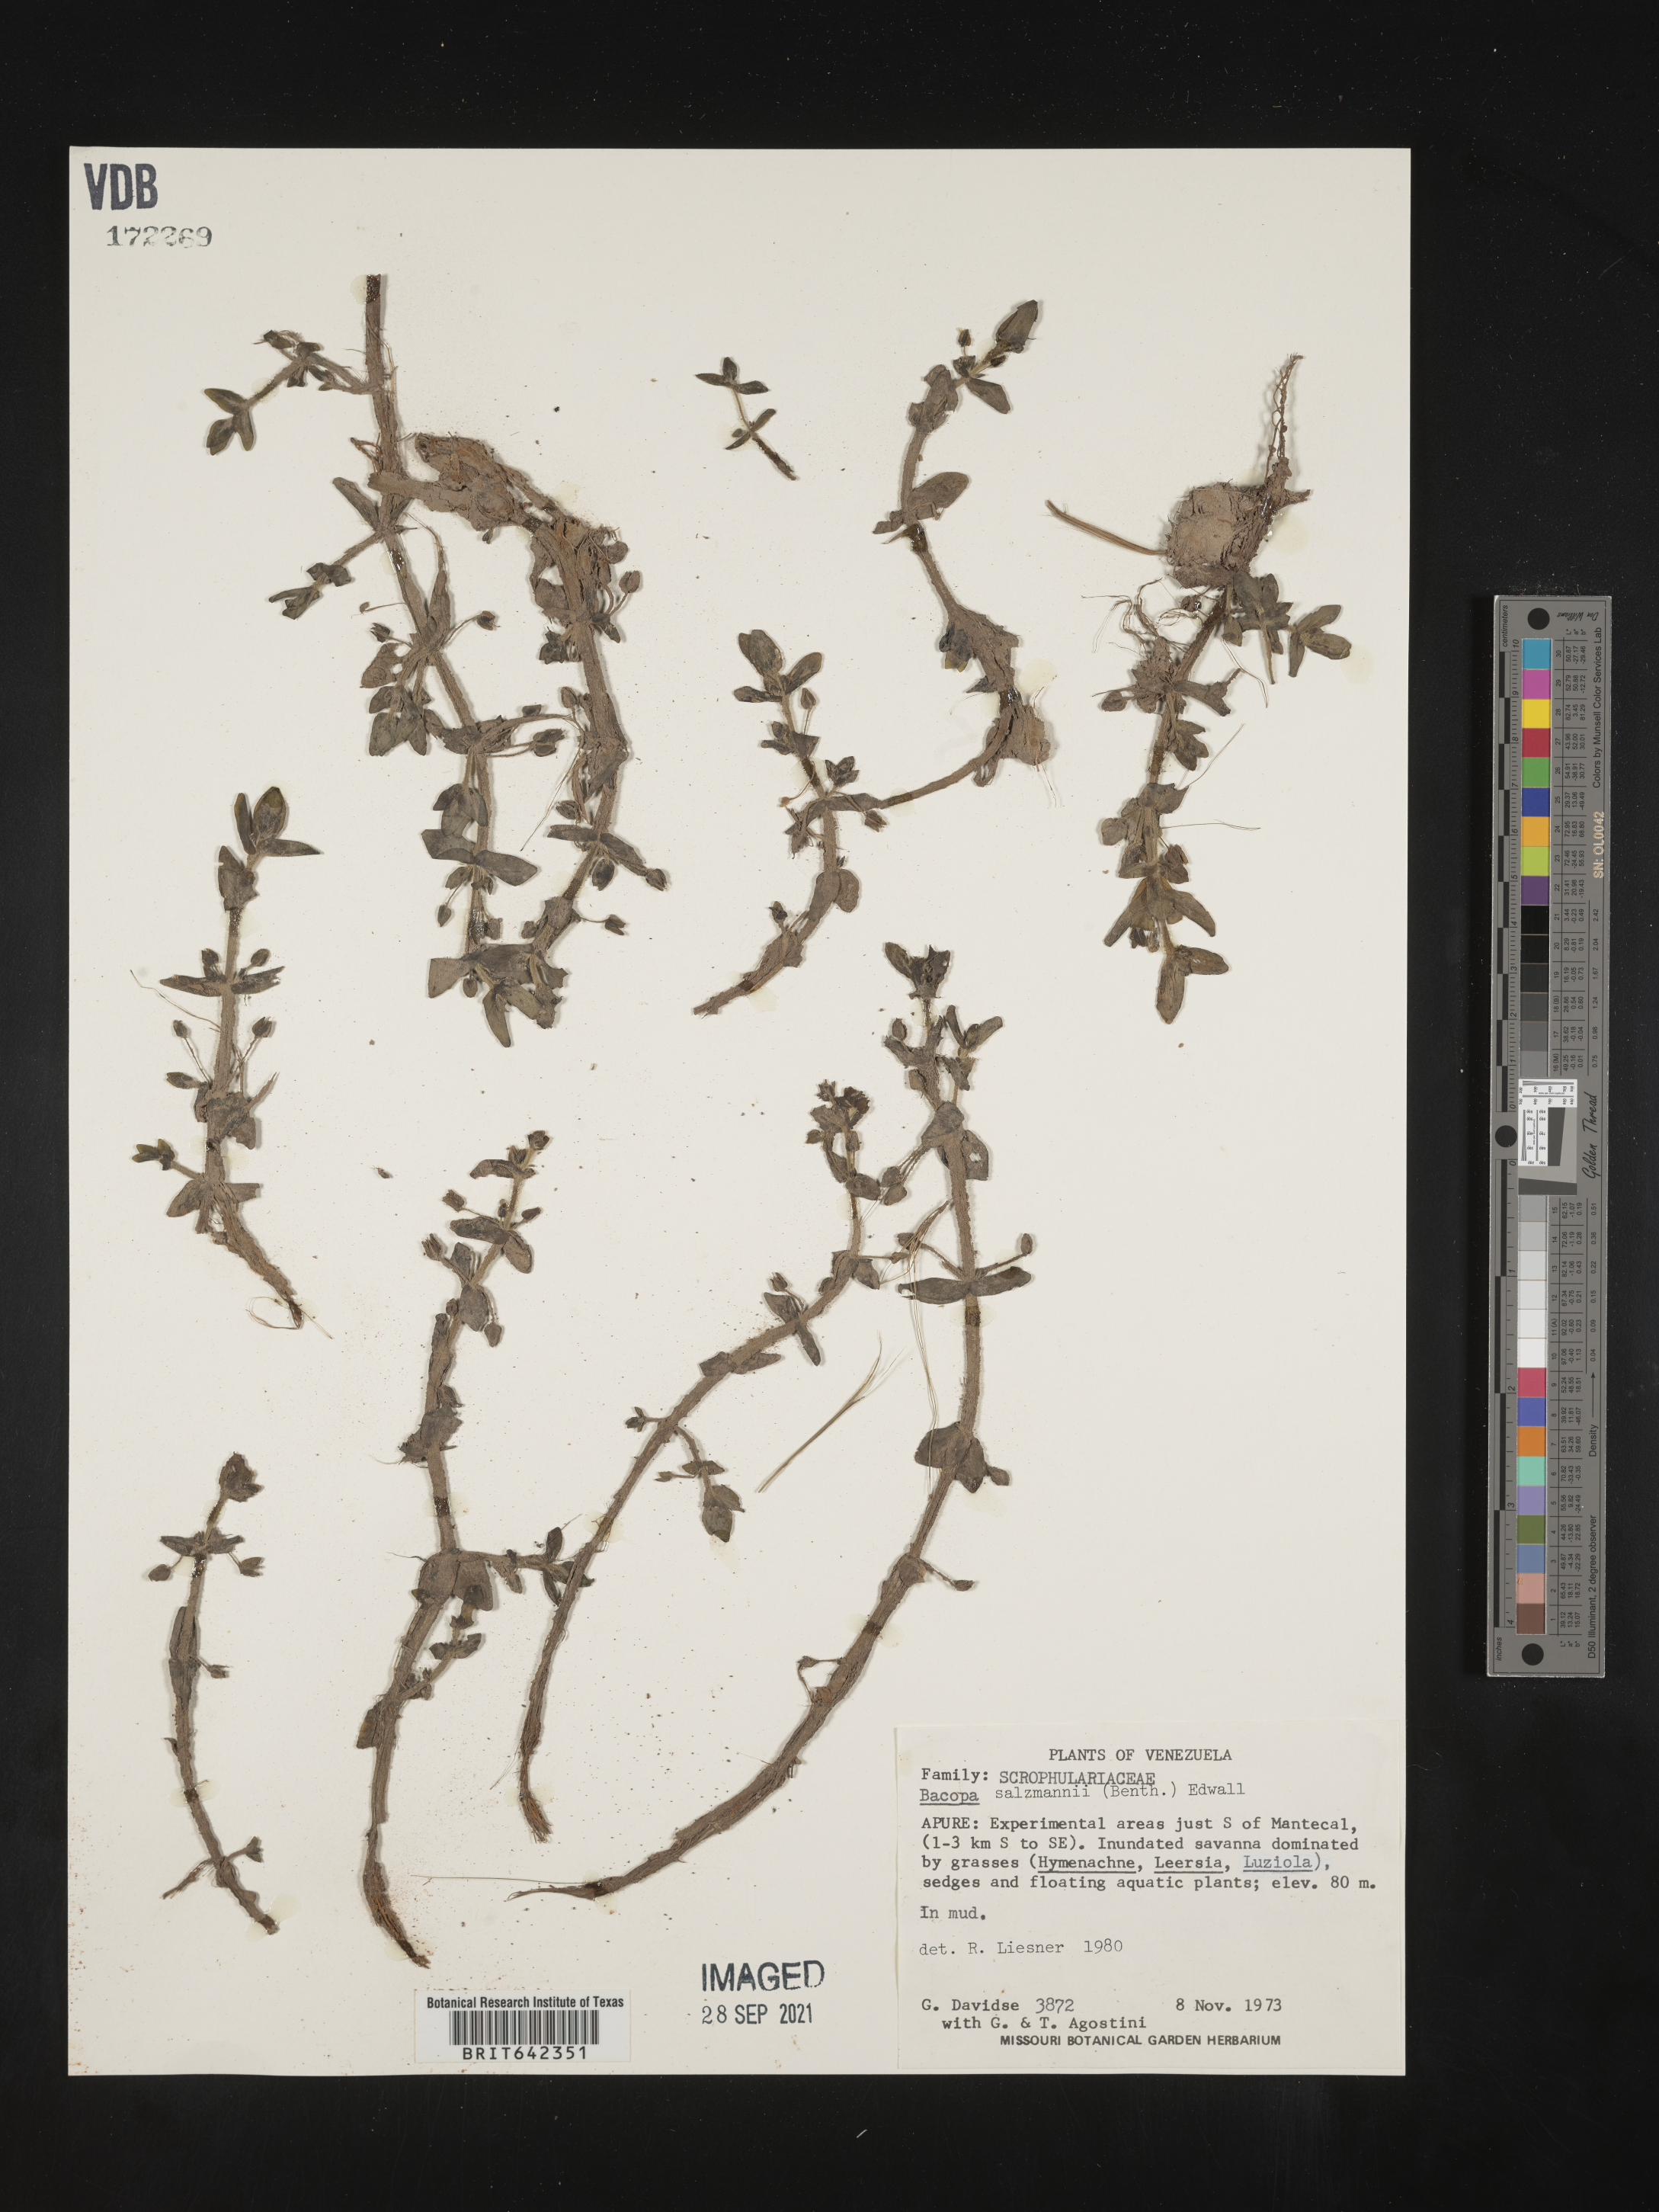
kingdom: Plantae
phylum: Tracheophyta
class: Magnoliopsida
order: Lamiales
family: Plantaginaceae
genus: Bacopa
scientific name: Bacopa
